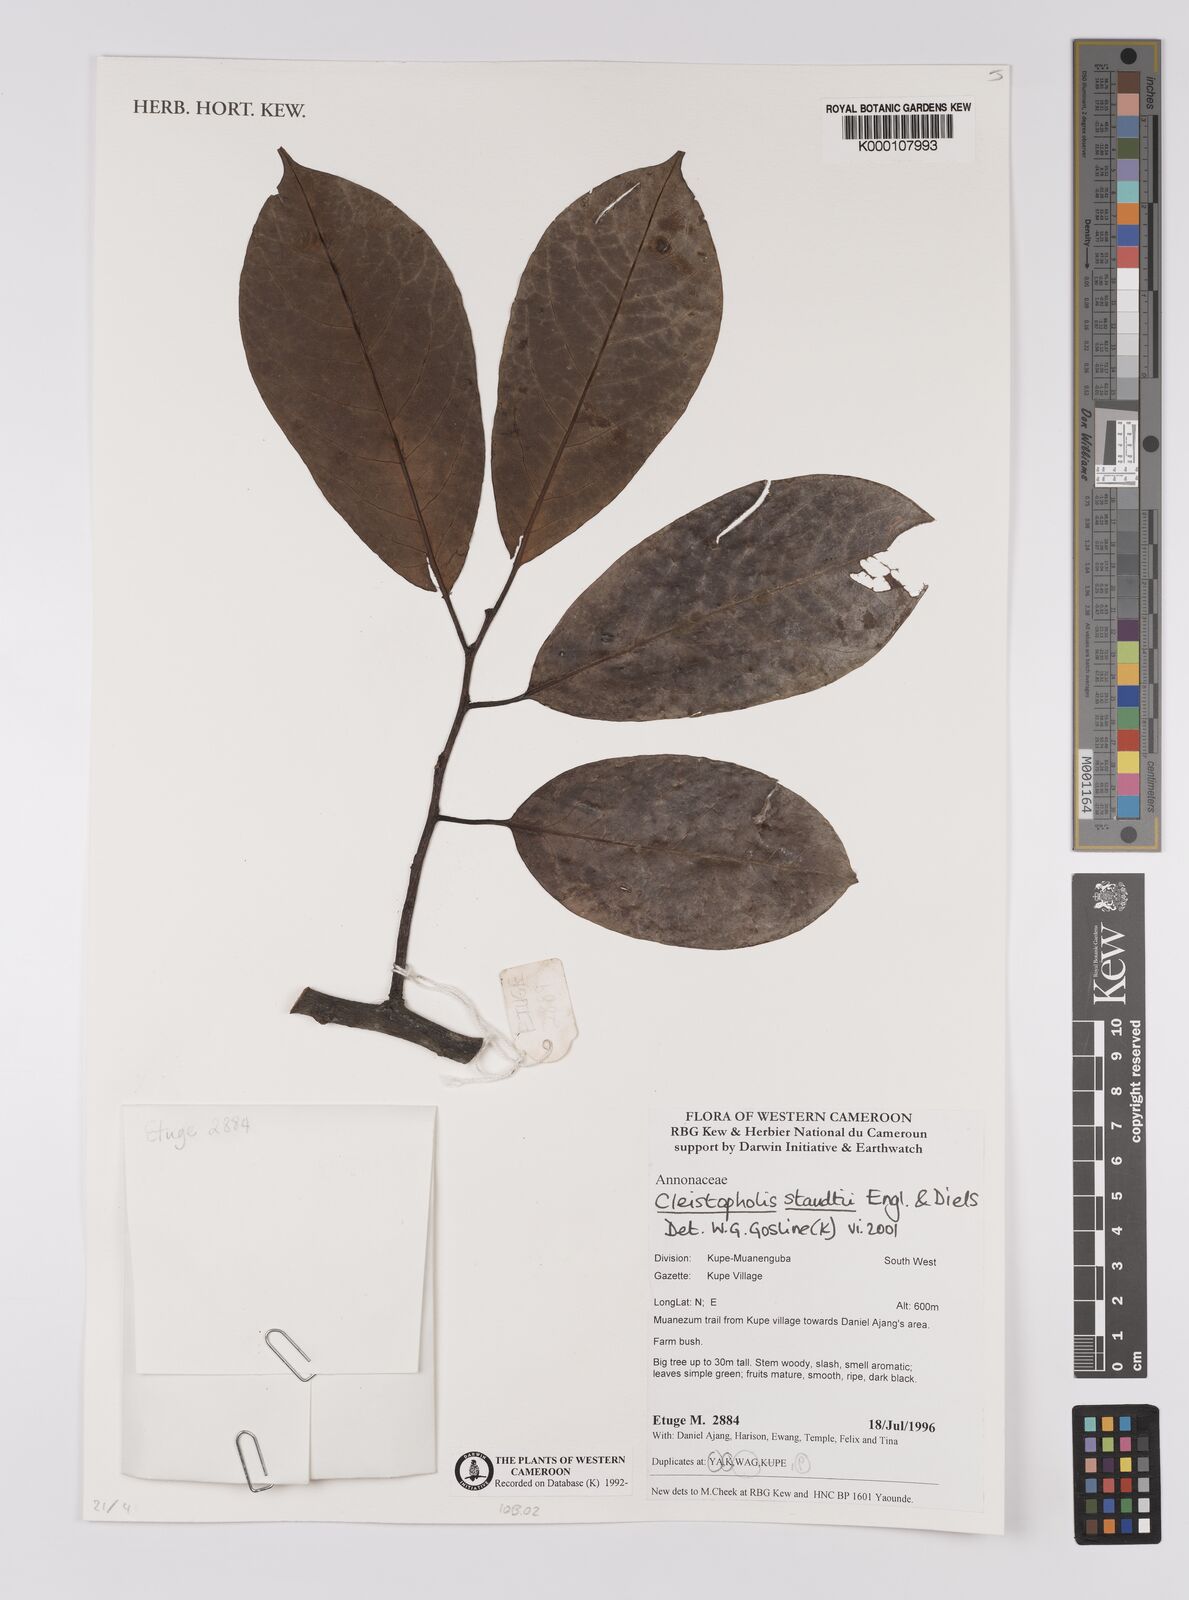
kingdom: Plantae
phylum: Tracheophyta
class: Magnoliopsida
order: Magnoliales
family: Annonaceae
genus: Cleistopholis
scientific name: Cleistopholis staudtii
